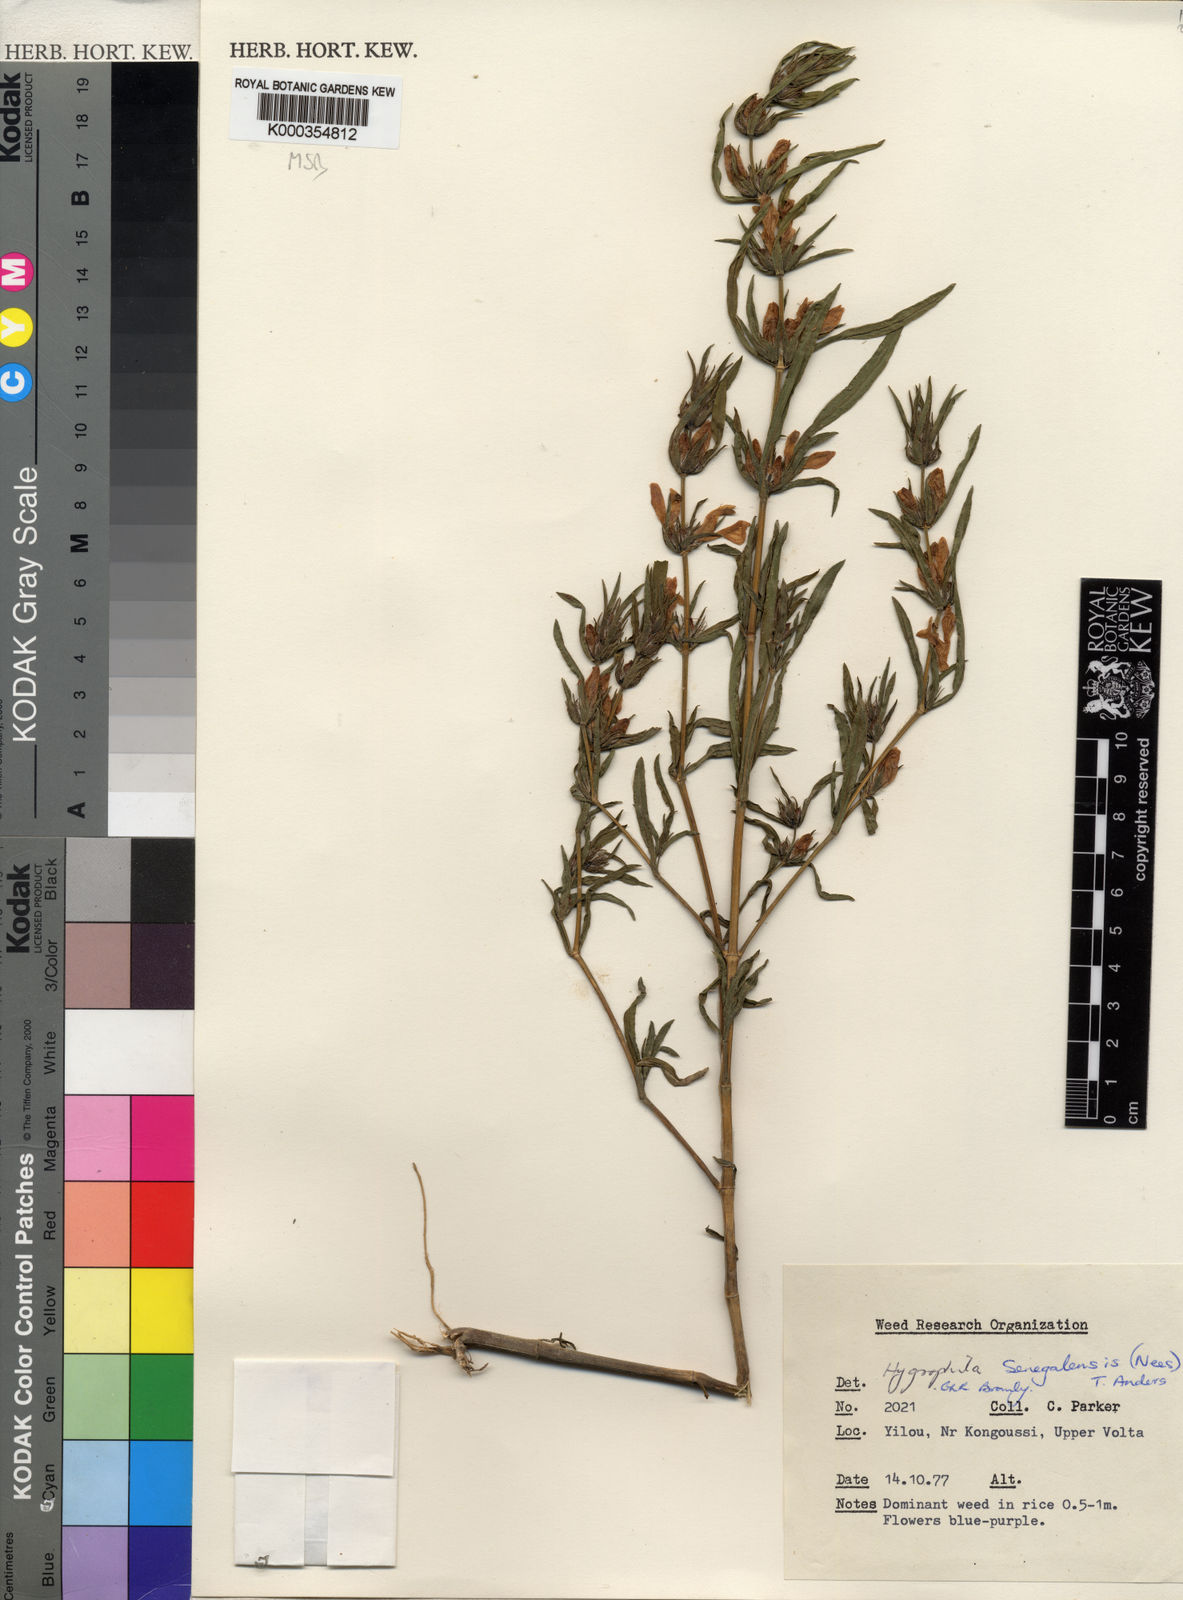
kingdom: Plantae
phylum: Tracheophyta
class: Magnoliopsida
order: Lamiales
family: Acanthaceae
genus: Hygrophila
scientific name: Hygrophila micrantha
